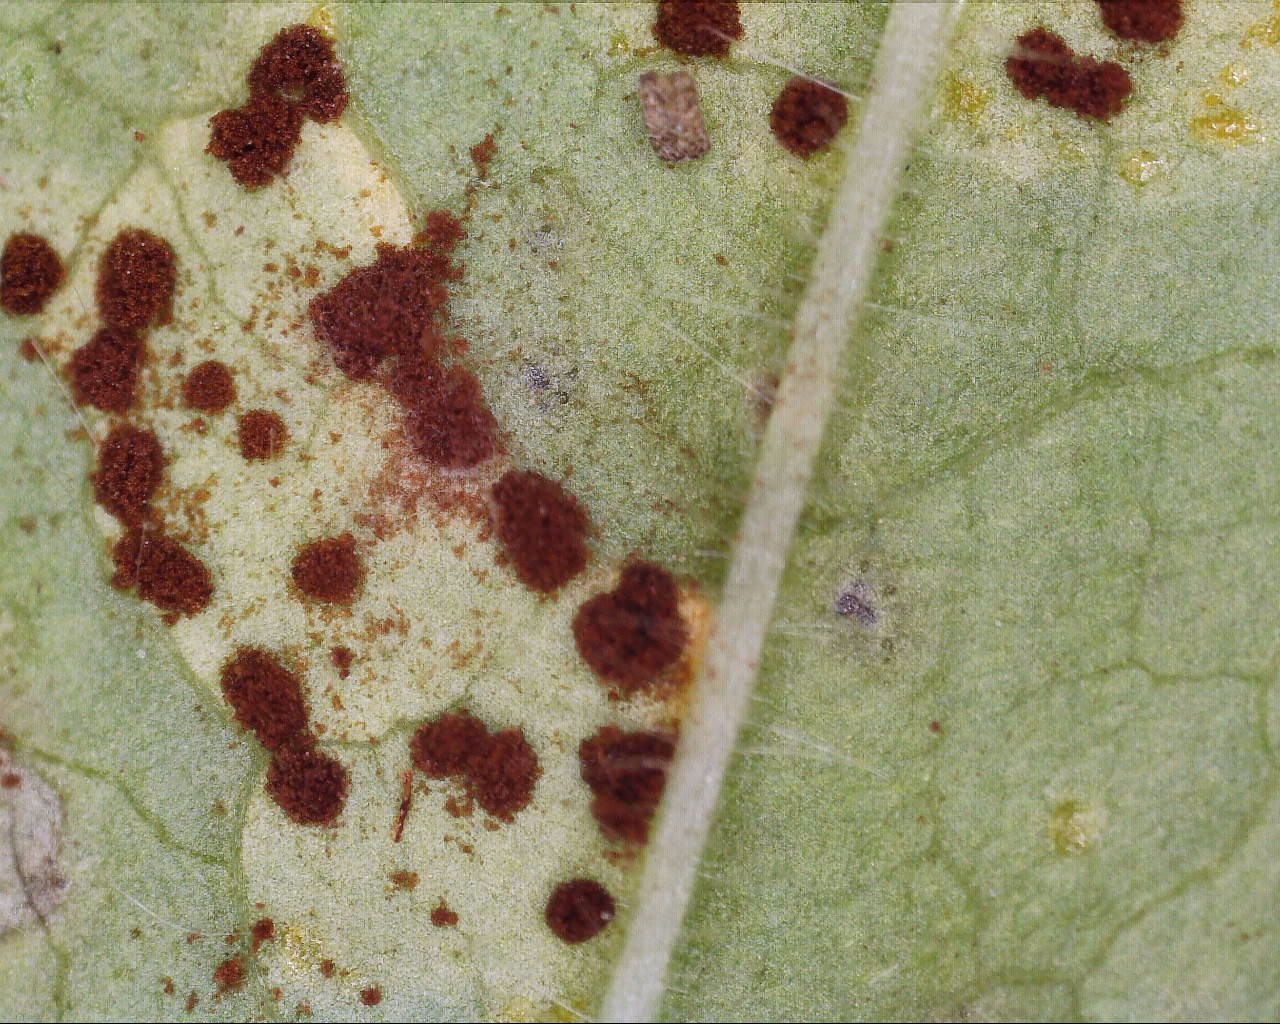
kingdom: Fungi
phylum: Basidiomycota
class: Pucciniomycetes
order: Pucciniales
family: Pucciniaceae
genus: Puccinia
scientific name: Puccinia pulverulenta
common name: dueurt-tvecellerust
